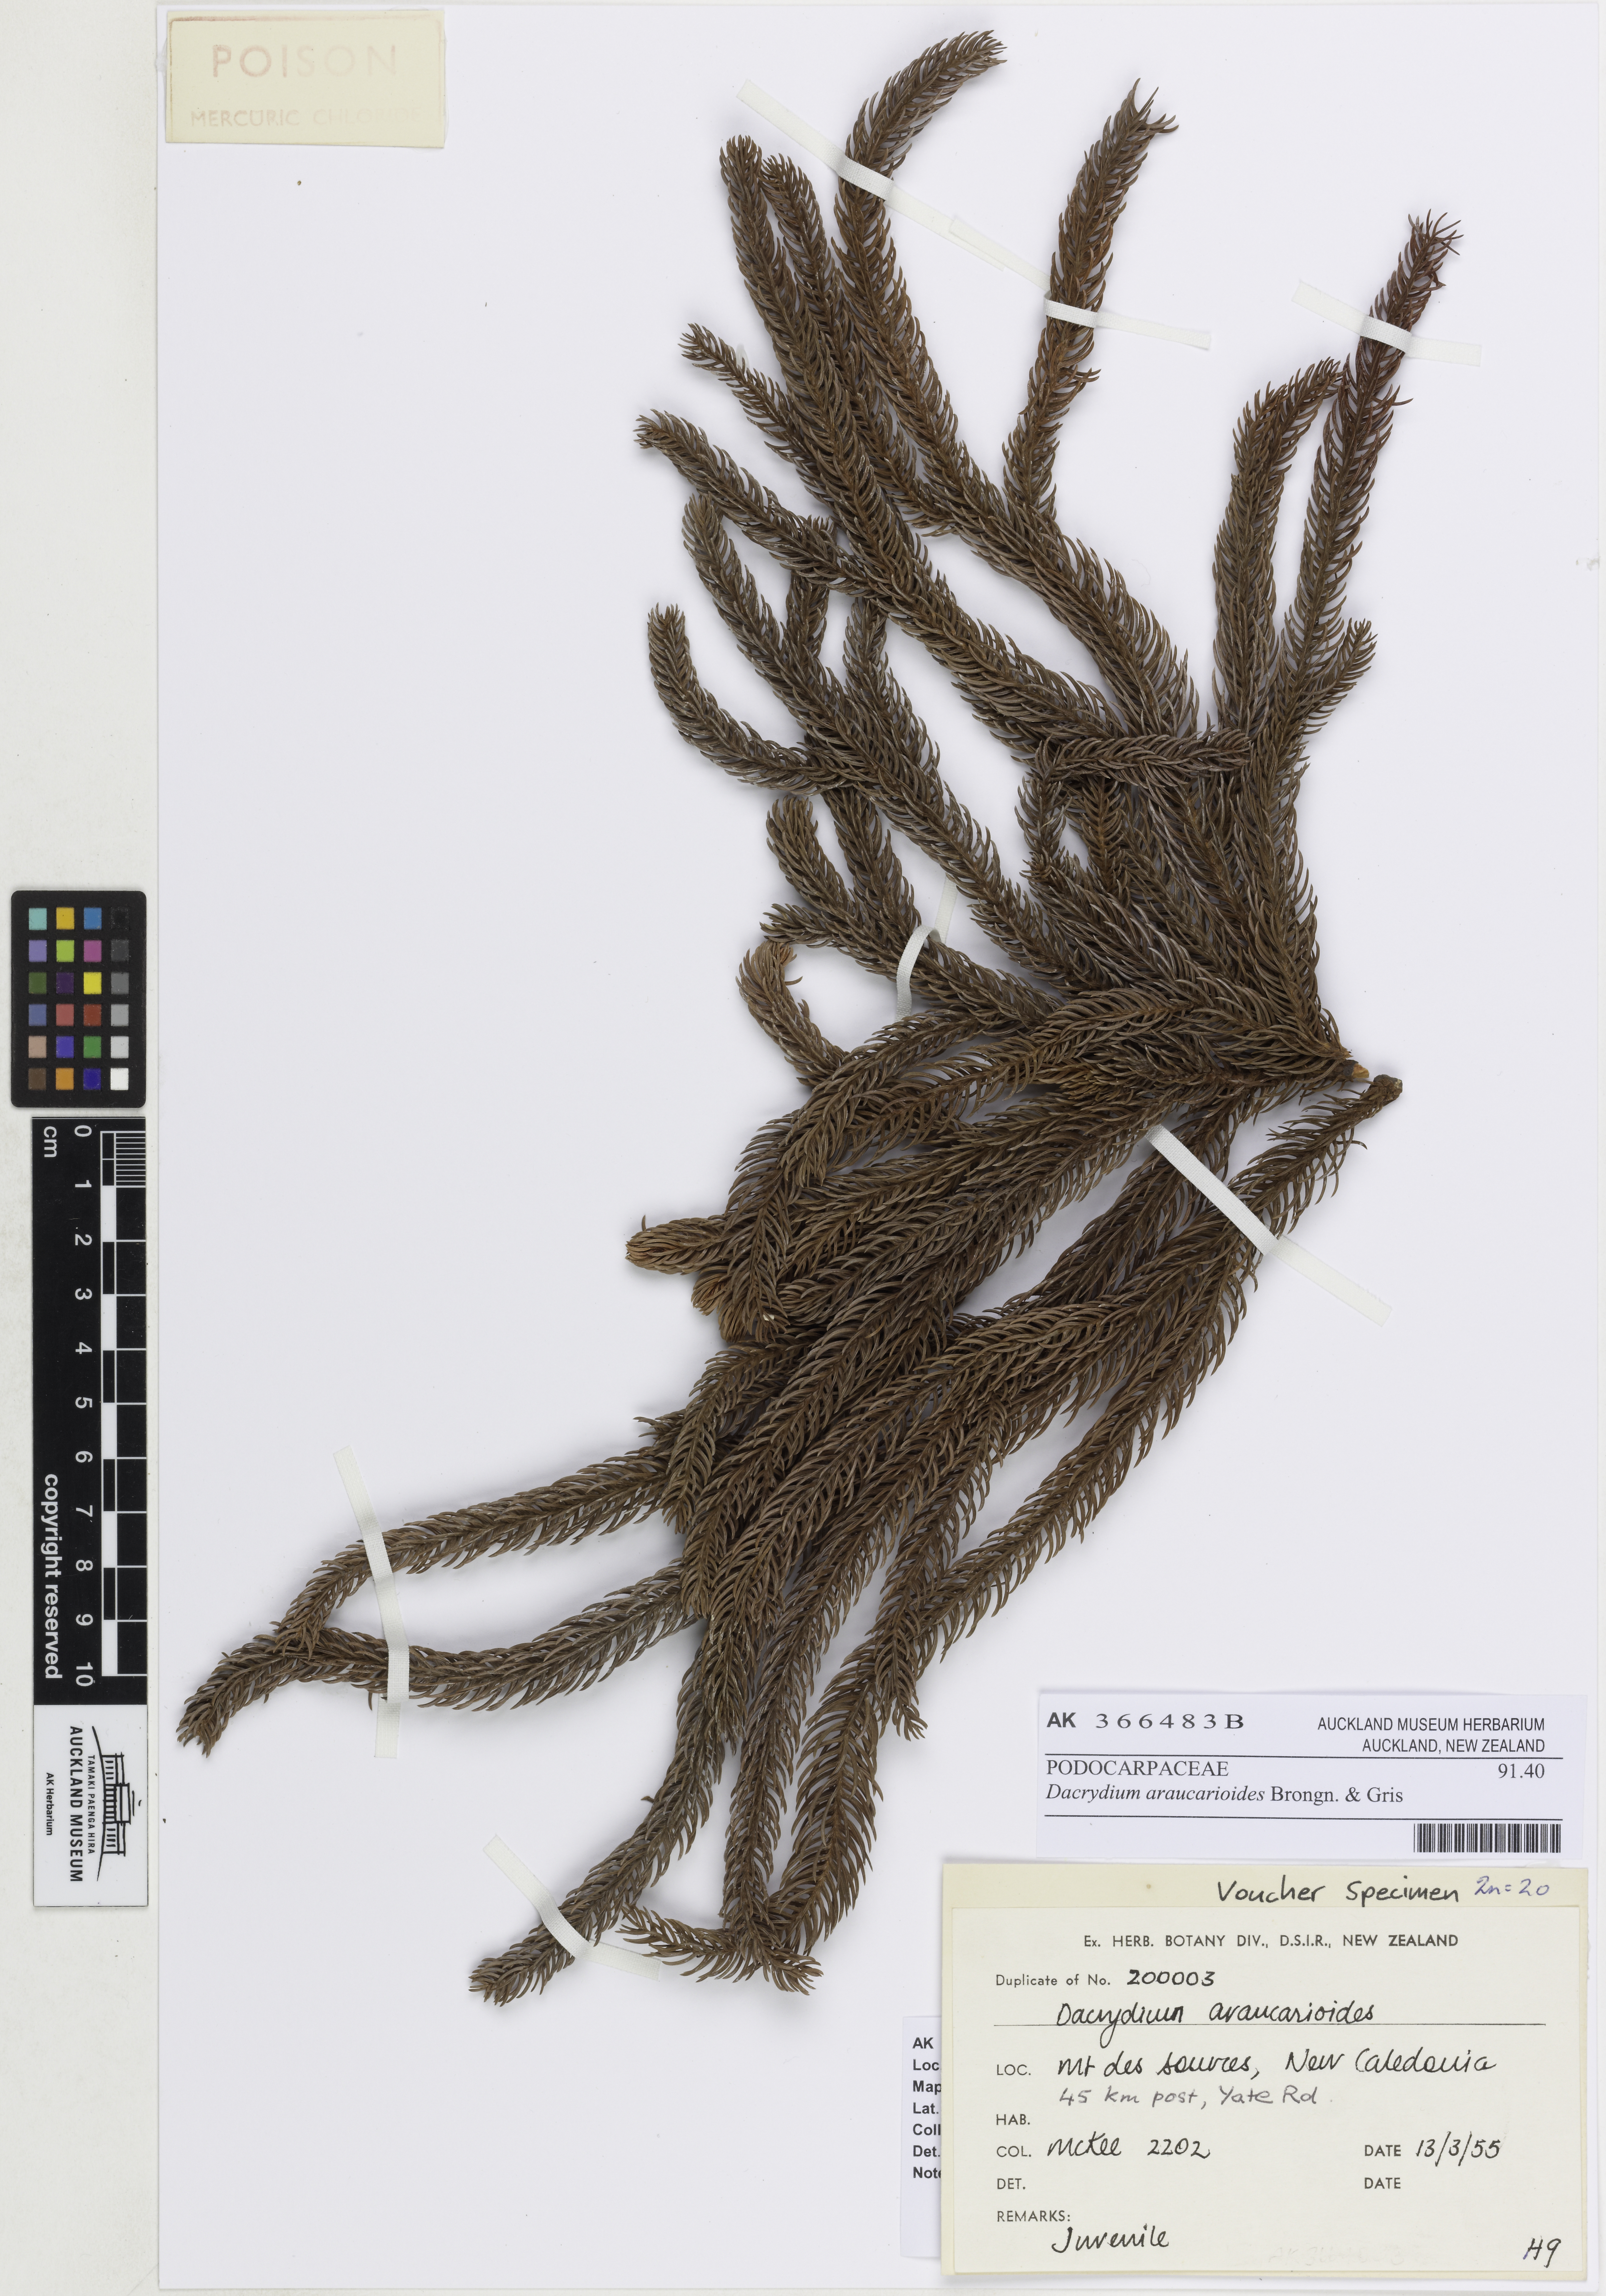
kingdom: Plantae
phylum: Tracheophyta
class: Pinopsida
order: Pinales
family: Podocarpaceae
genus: Dacrydium
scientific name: Dacrydium araucarioides
